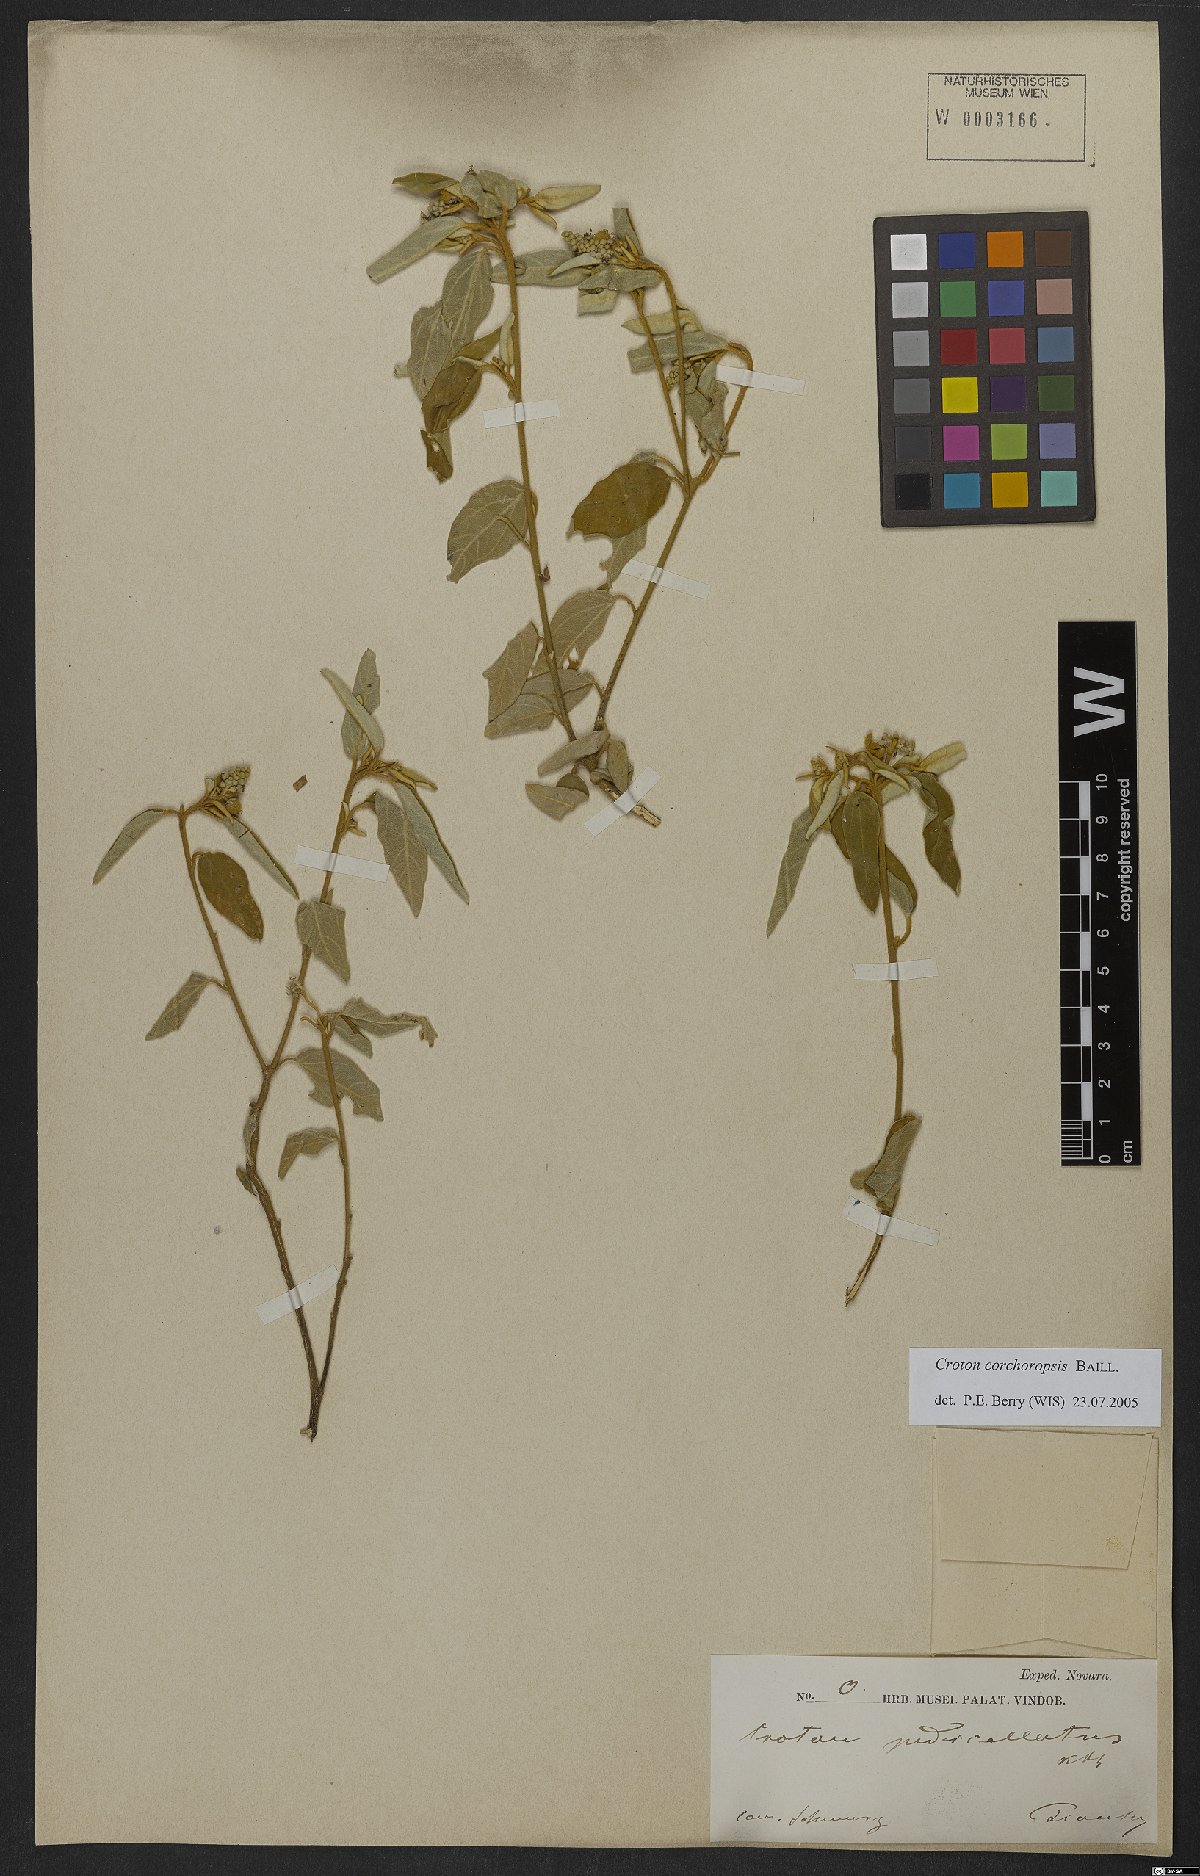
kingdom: Plantae
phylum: Tracheophyta
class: Magnoliopsida
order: Malpighiales
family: Euphorbiaceae
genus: Croton
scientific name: Croton corchoropsis
